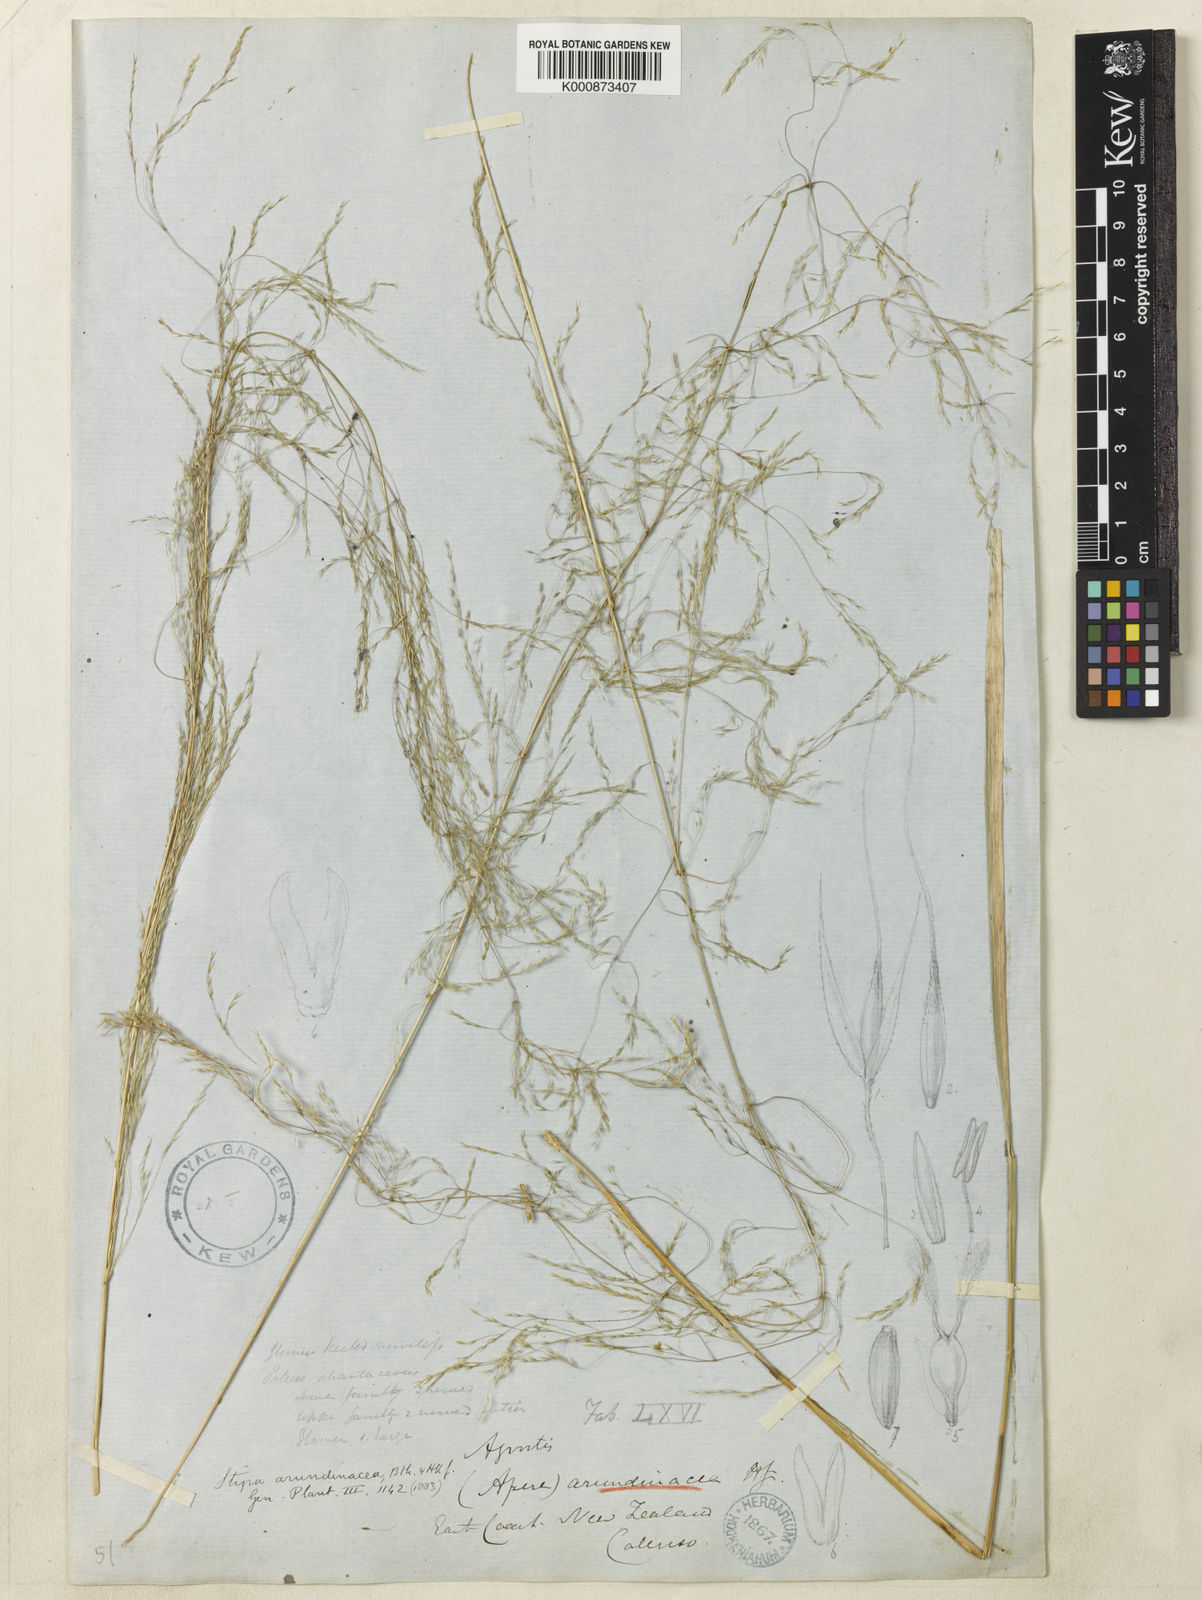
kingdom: Plantae
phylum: Tracheophyta
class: Liliopsida
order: Poales
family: Poaceae
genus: Stipa
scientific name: Stipa
